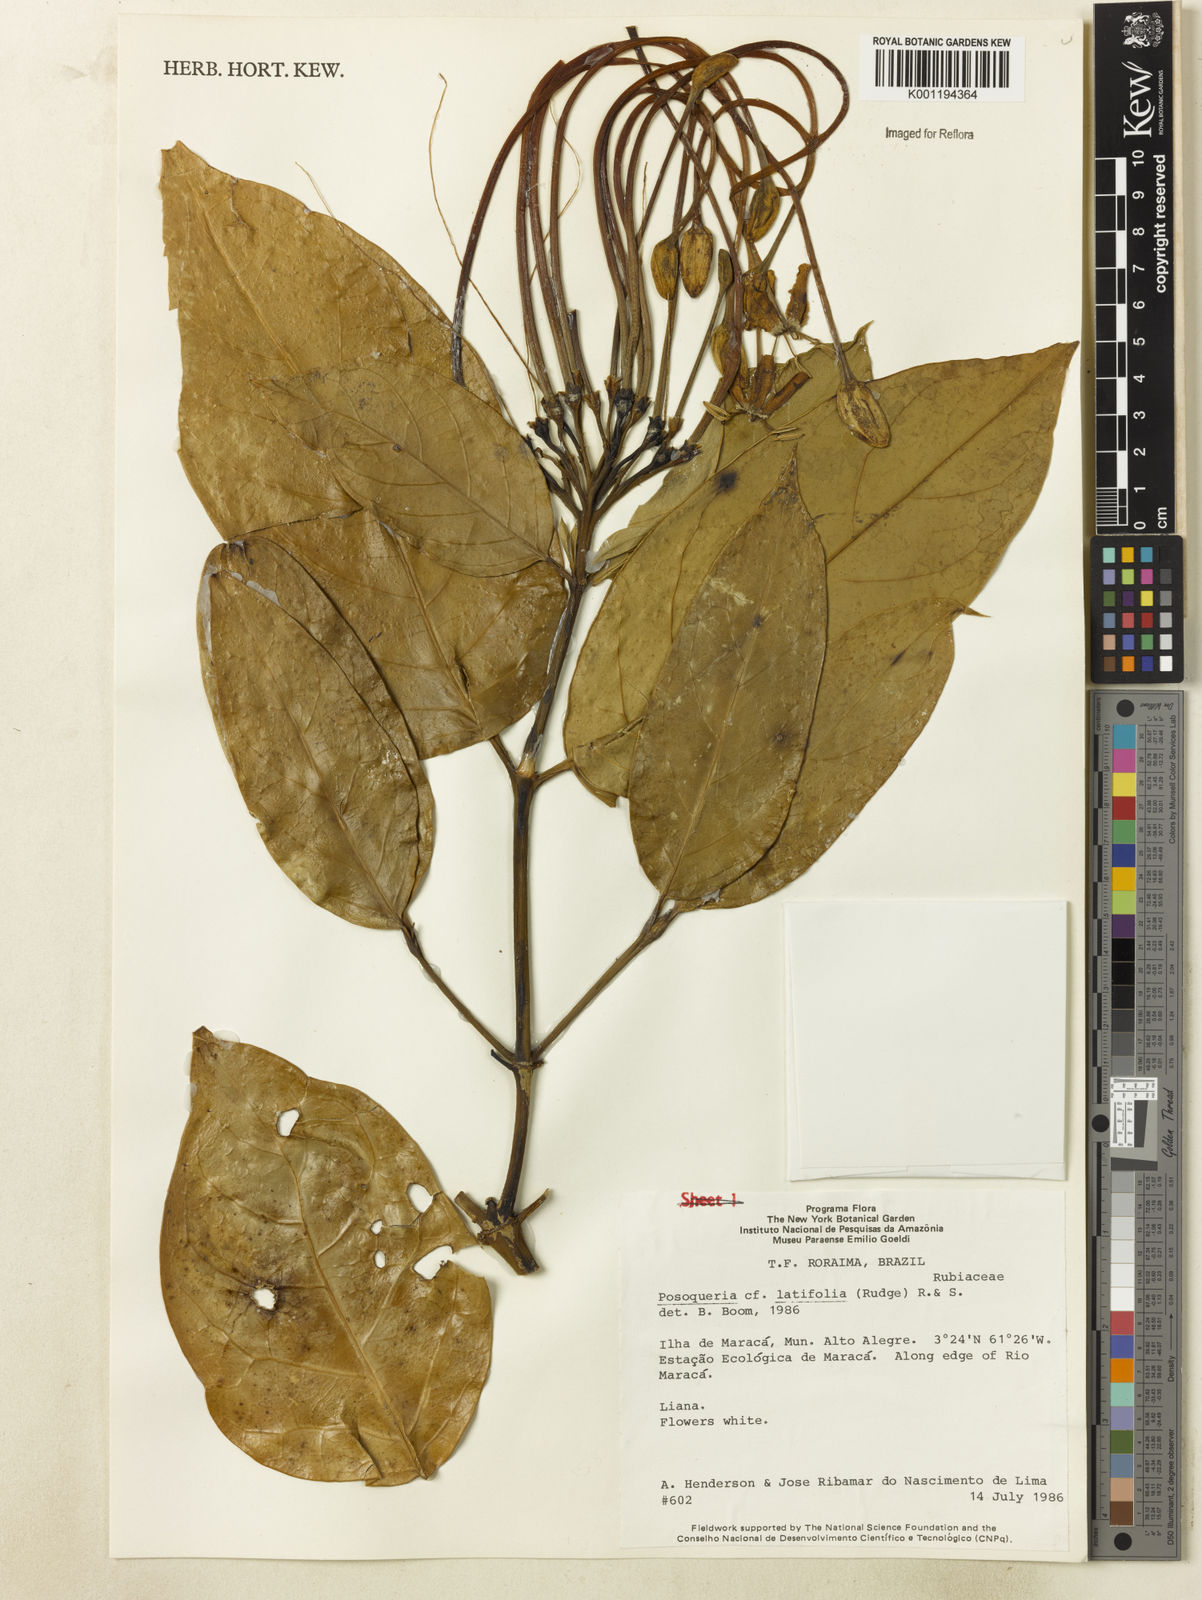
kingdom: Plantae
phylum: Tracheophyta
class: Magnoliopsida
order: Gentianales
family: Rubiaceae
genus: Posoqueria
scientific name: Posoqueria latifolia
